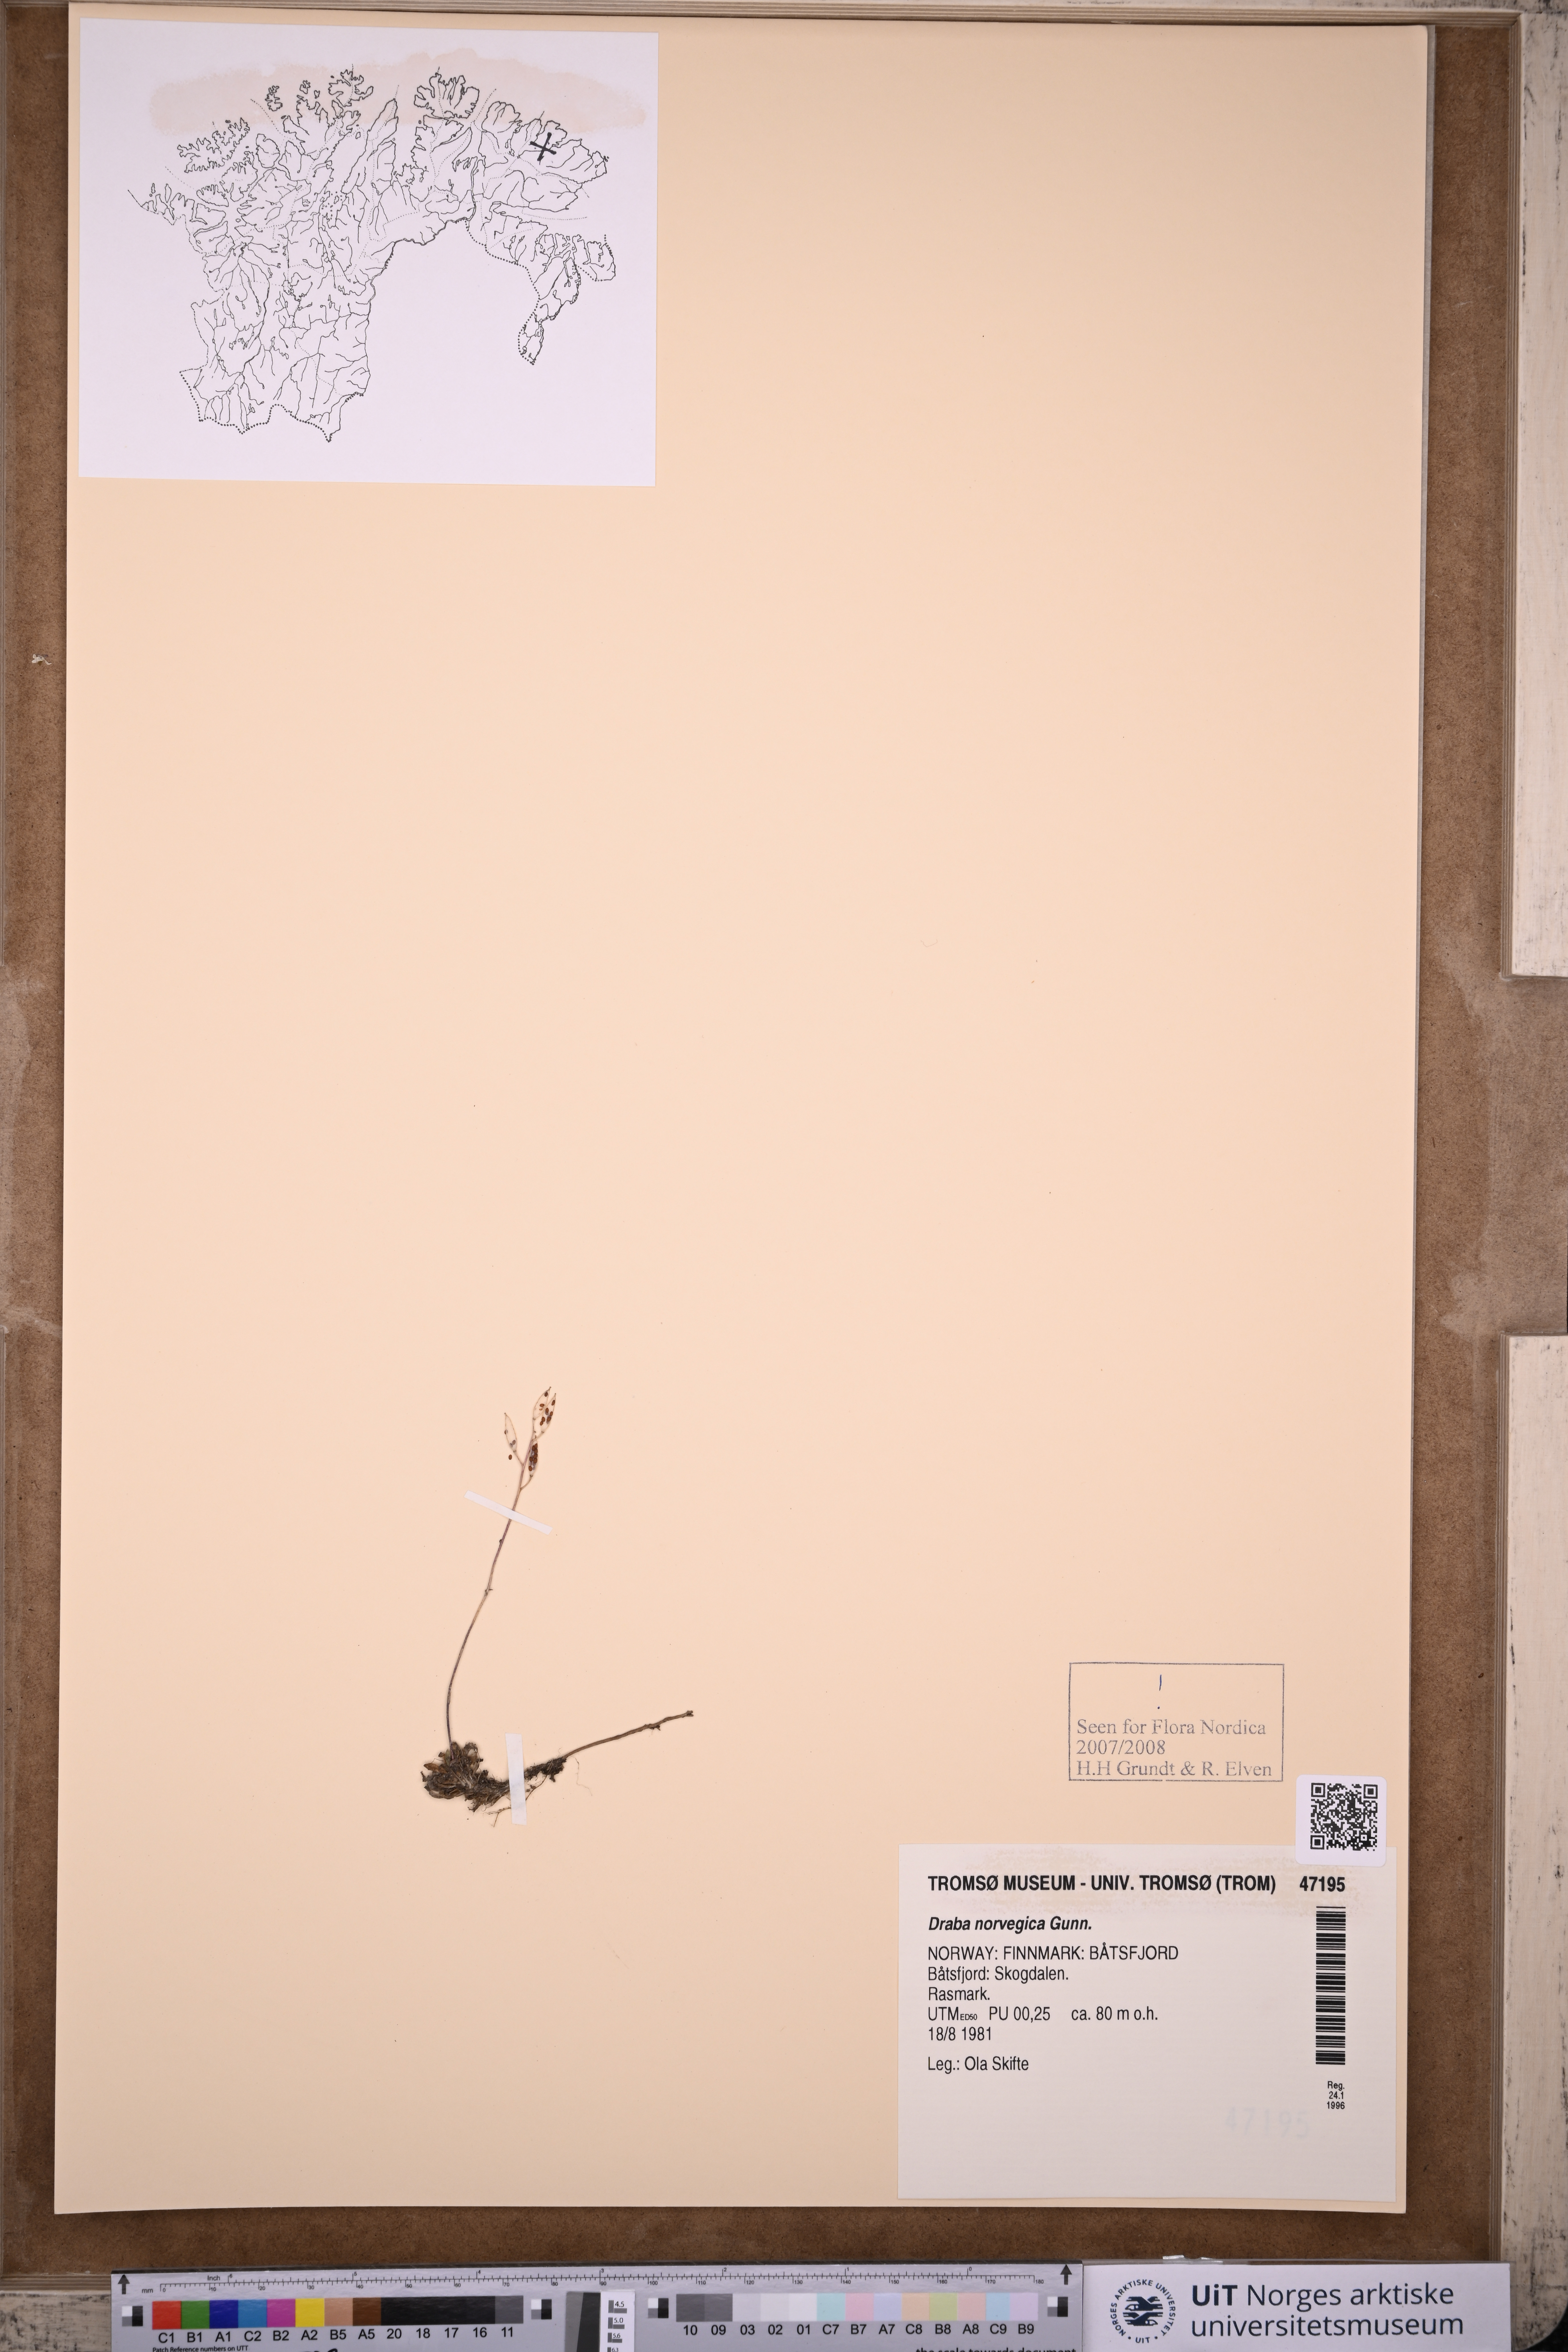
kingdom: Plantae
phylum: Tracheophyta
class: Magnoliopsida
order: Brassicales
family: Brassicaceae
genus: Draba
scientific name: Draba norvegica
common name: Rock whitlowgrass
